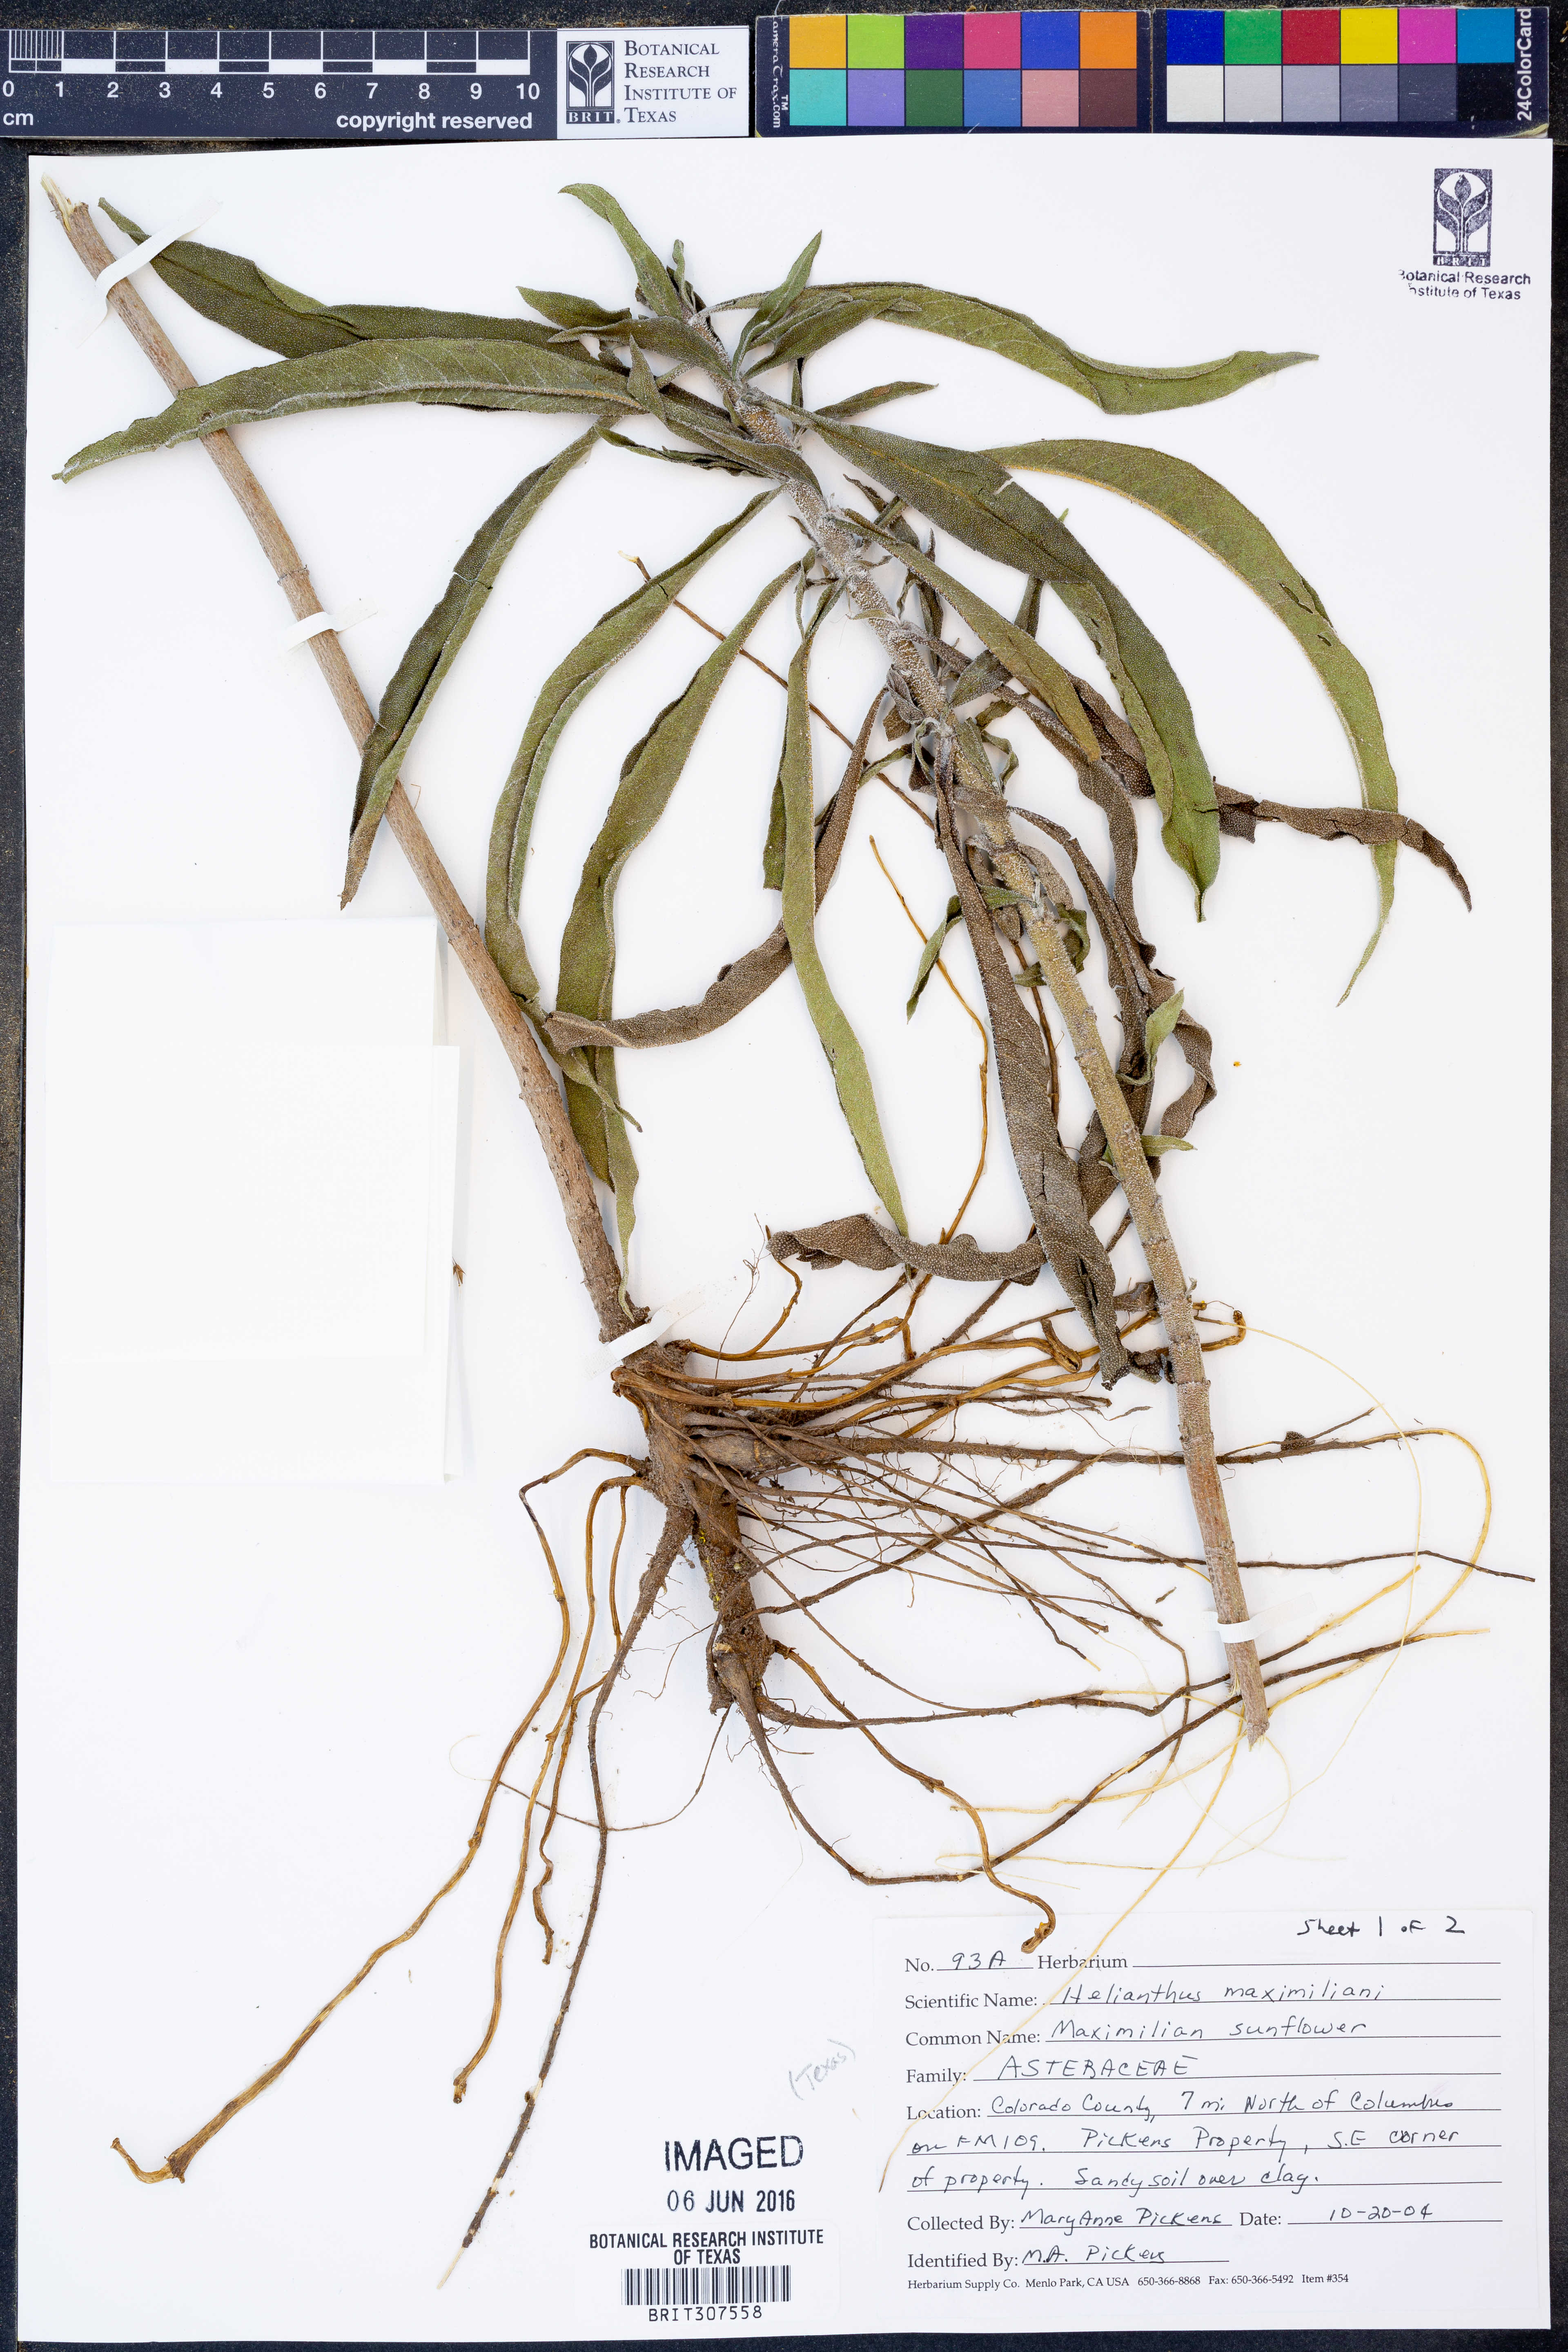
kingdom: Plantae
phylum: Tracheophyta
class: Magnoliopsida
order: Asterales
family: Asteraceae
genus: Helianthus
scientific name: Helianthus maximiliani
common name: Maximilian's sunflower
